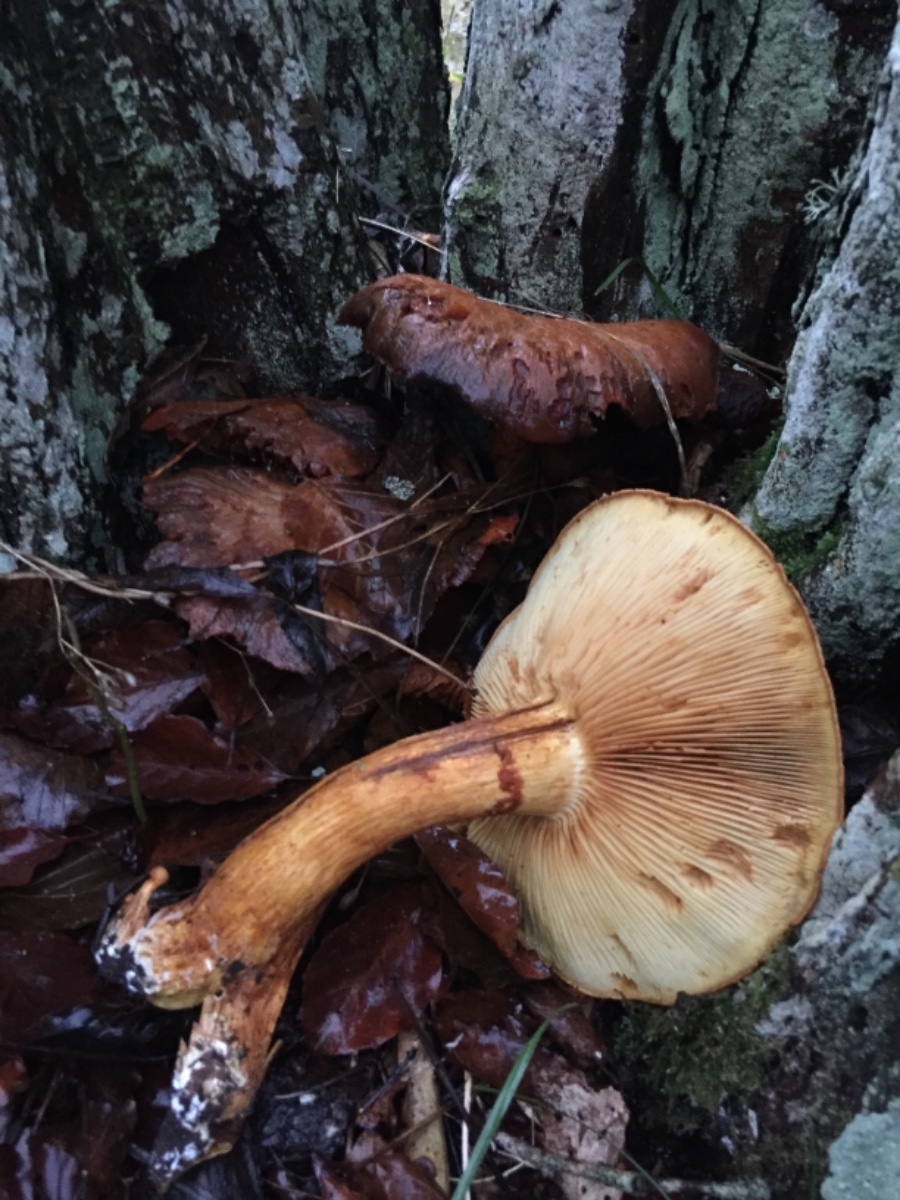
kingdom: Fungi
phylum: Basidiomycota
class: Agaricomycetes
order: Agaricales
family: Hymenogastraceae
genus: Gymnopilus
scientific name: Gymnopilus spectabilis
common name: fibret flammehat
